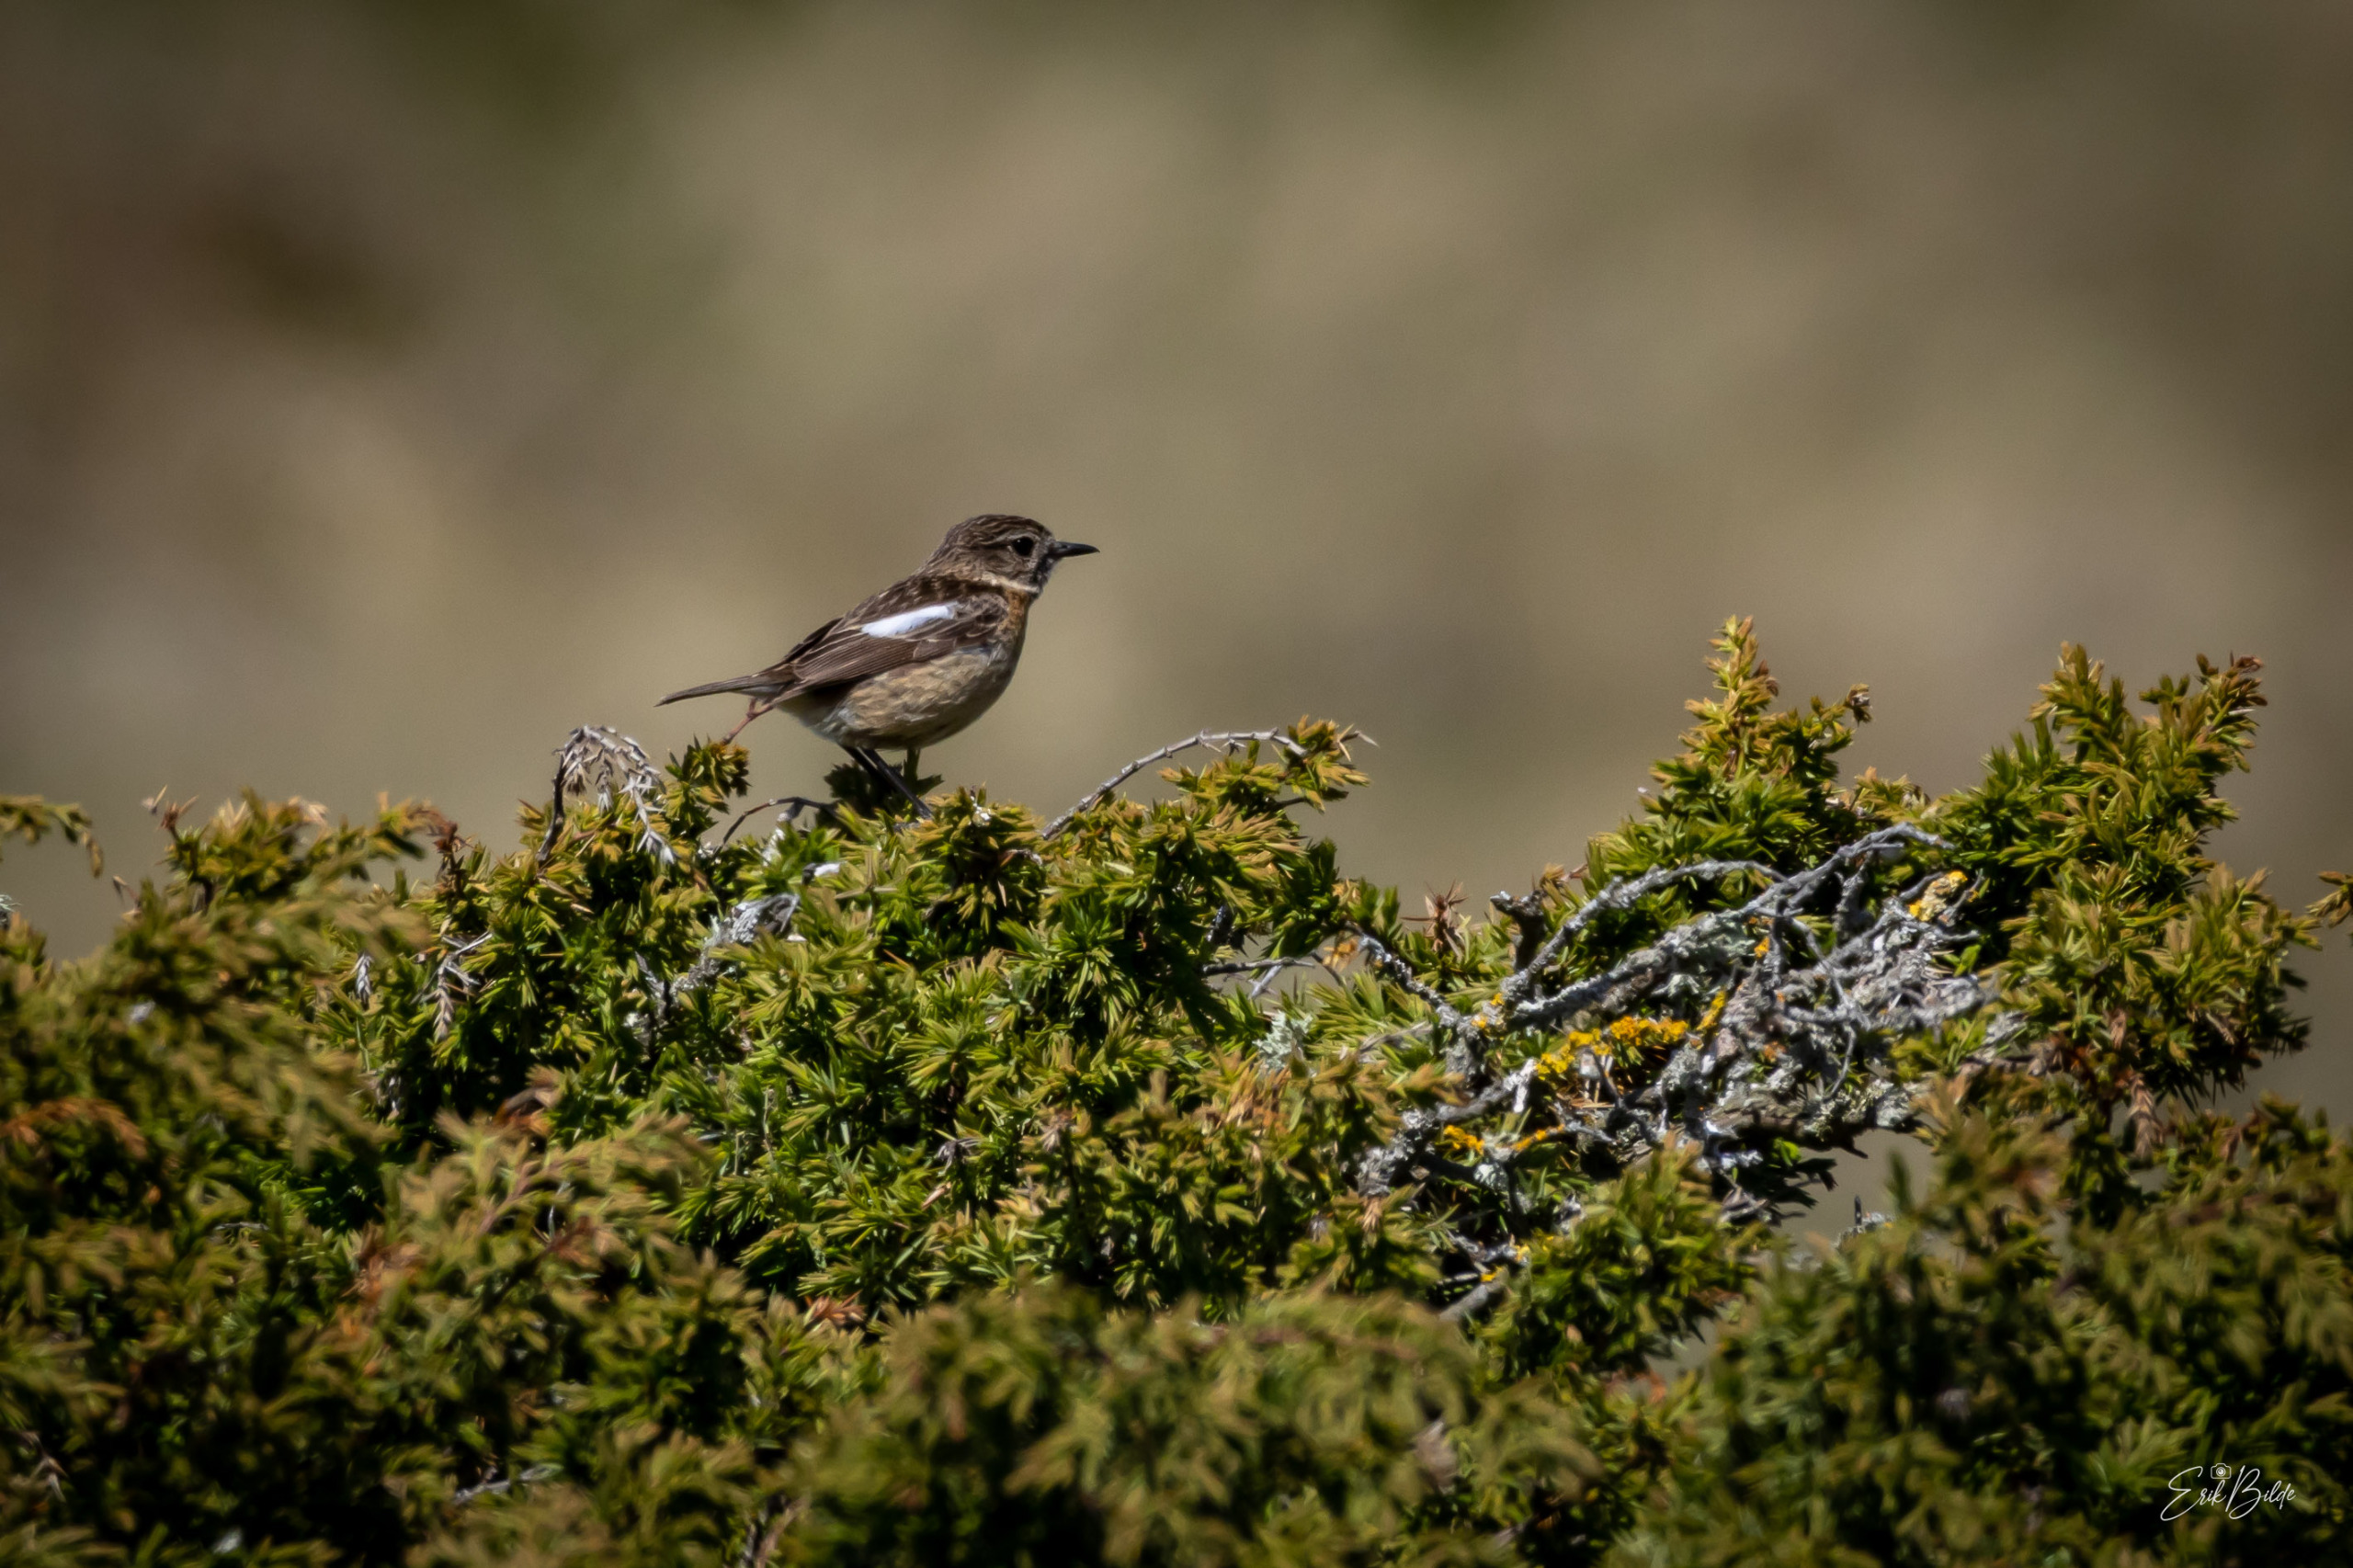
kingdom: Animalia
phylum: Chordata
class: Aves
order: Passeriformes
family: Muscicapidae
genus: Saxicola
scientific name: Saxicola rubicola
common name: Sortstrubet bynkefugl
